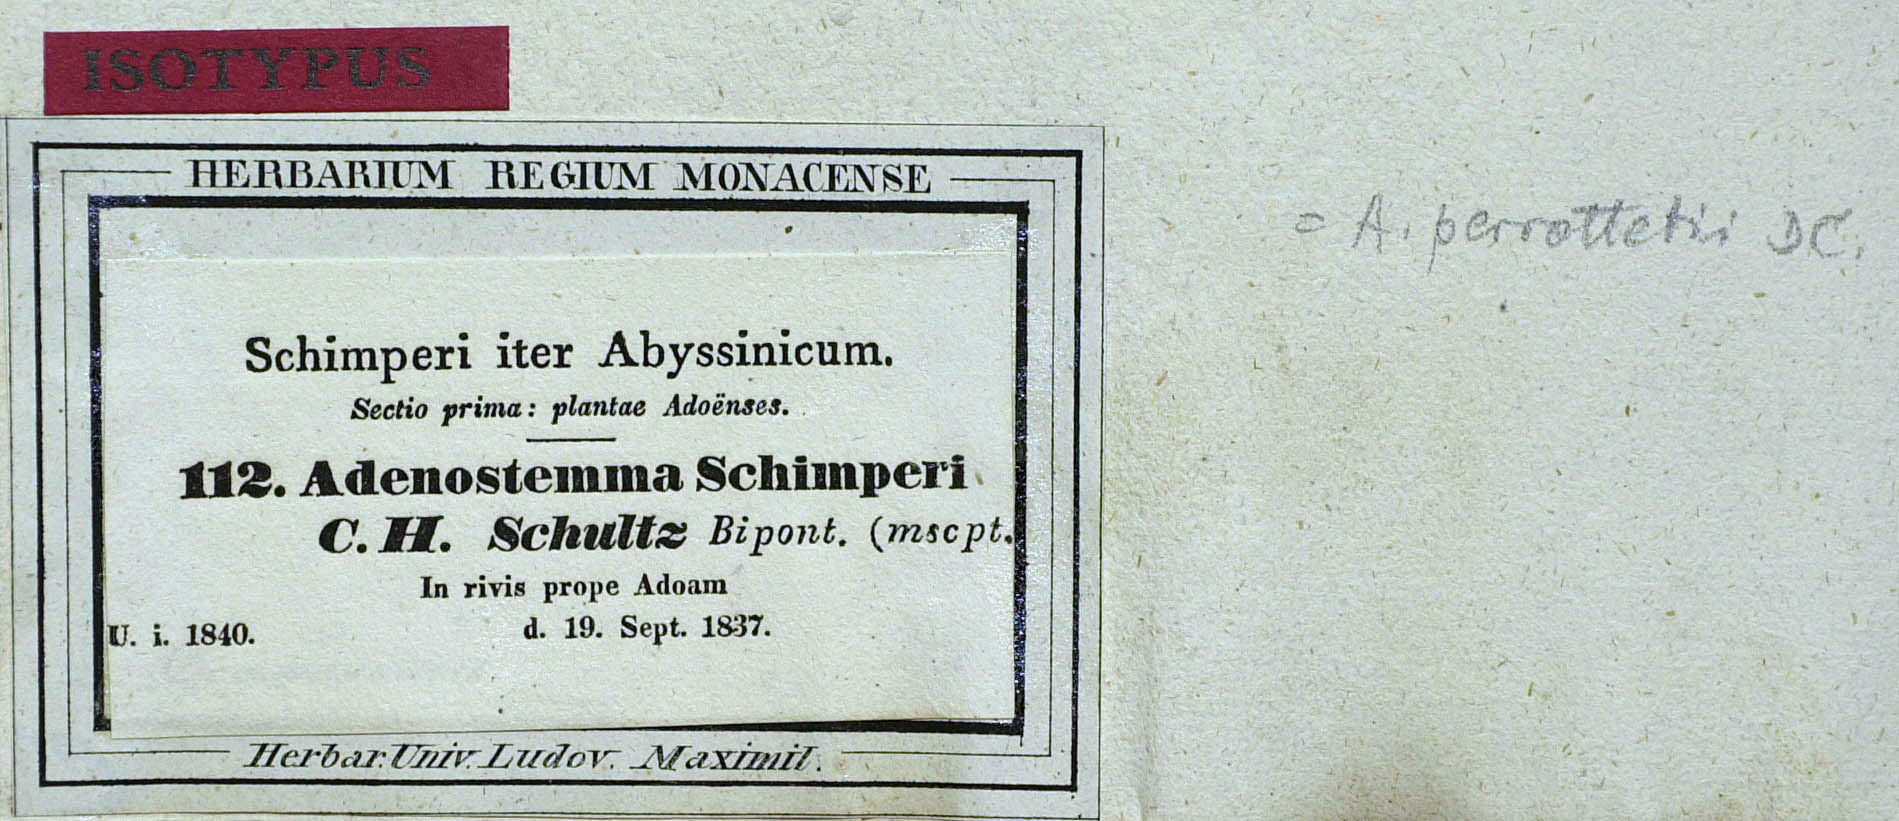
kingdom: Plantae
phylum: Tracheophyta
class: Magnoliopsida
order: Asterales
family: Asteraceae
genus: Adenostemma
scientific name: Adenostemma viscosum
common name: Dungweed
